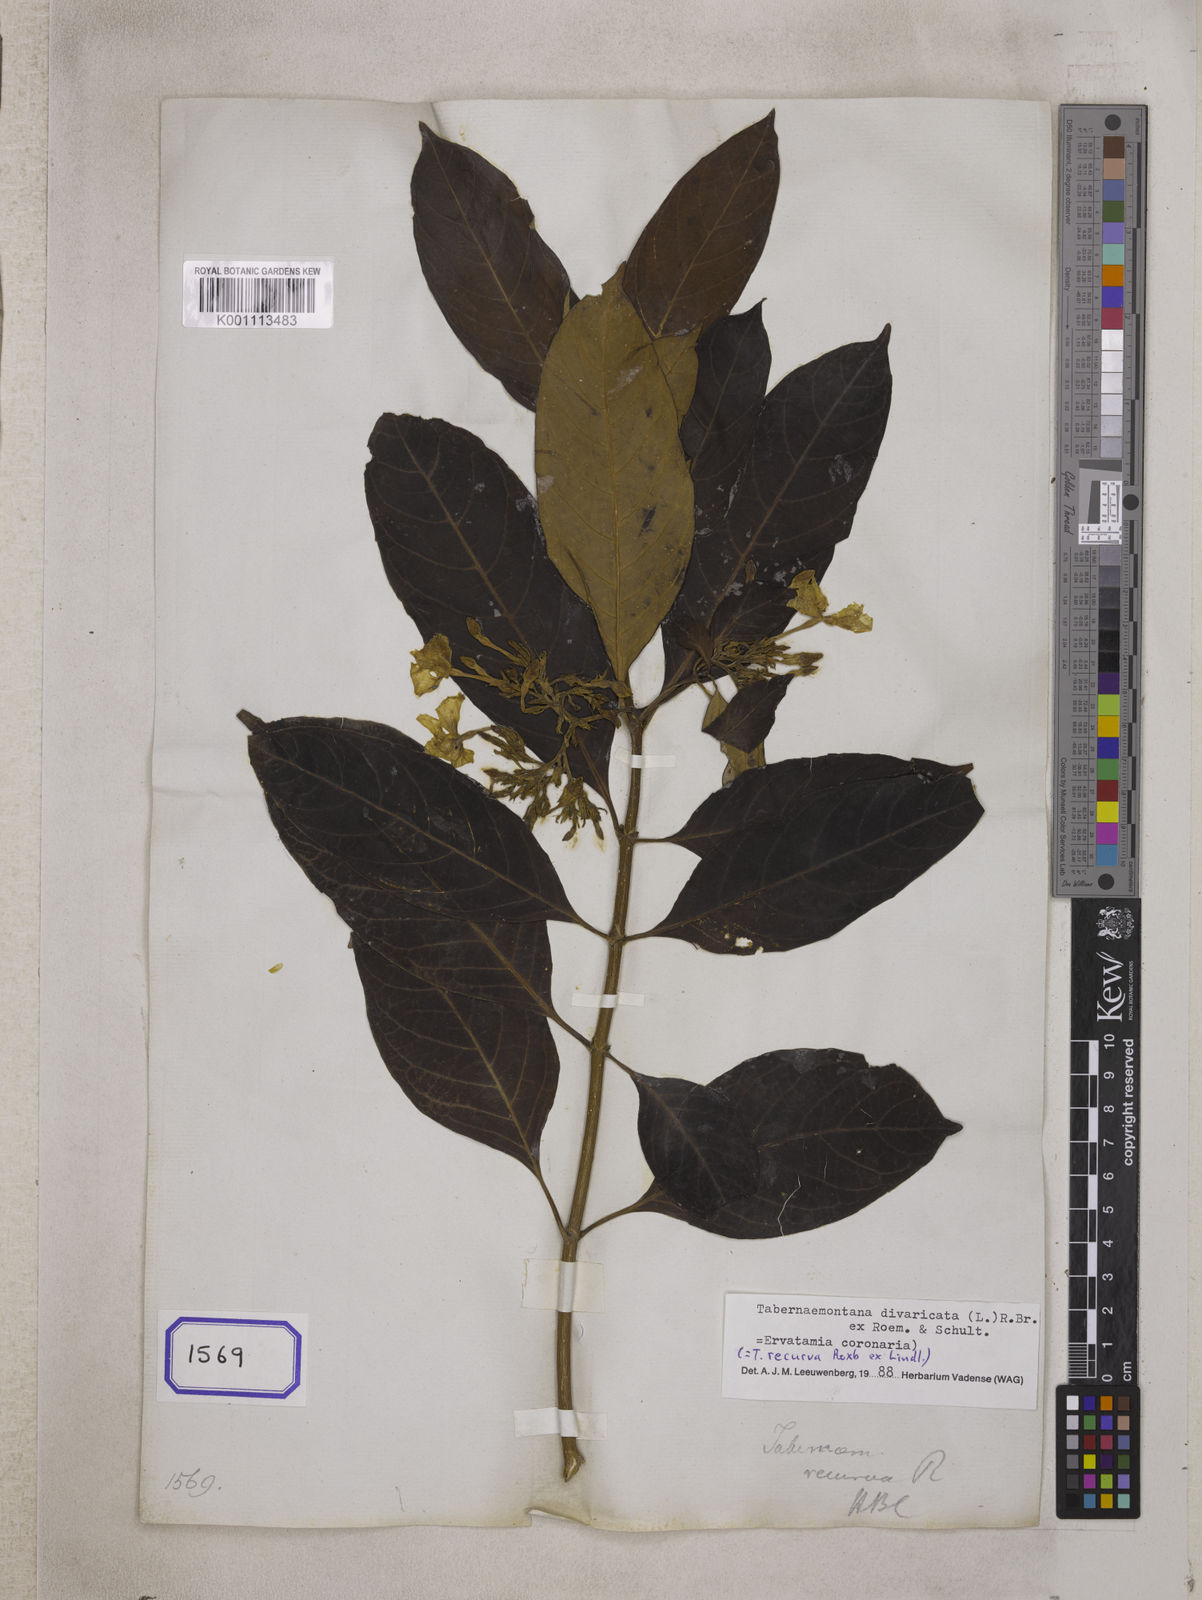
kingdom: Plantae
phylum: Tracheophyta
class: Magnoliopsida
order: Gentianales
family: Apocynaceae
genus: Tabernaemontana
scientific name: Tabernaemontana
